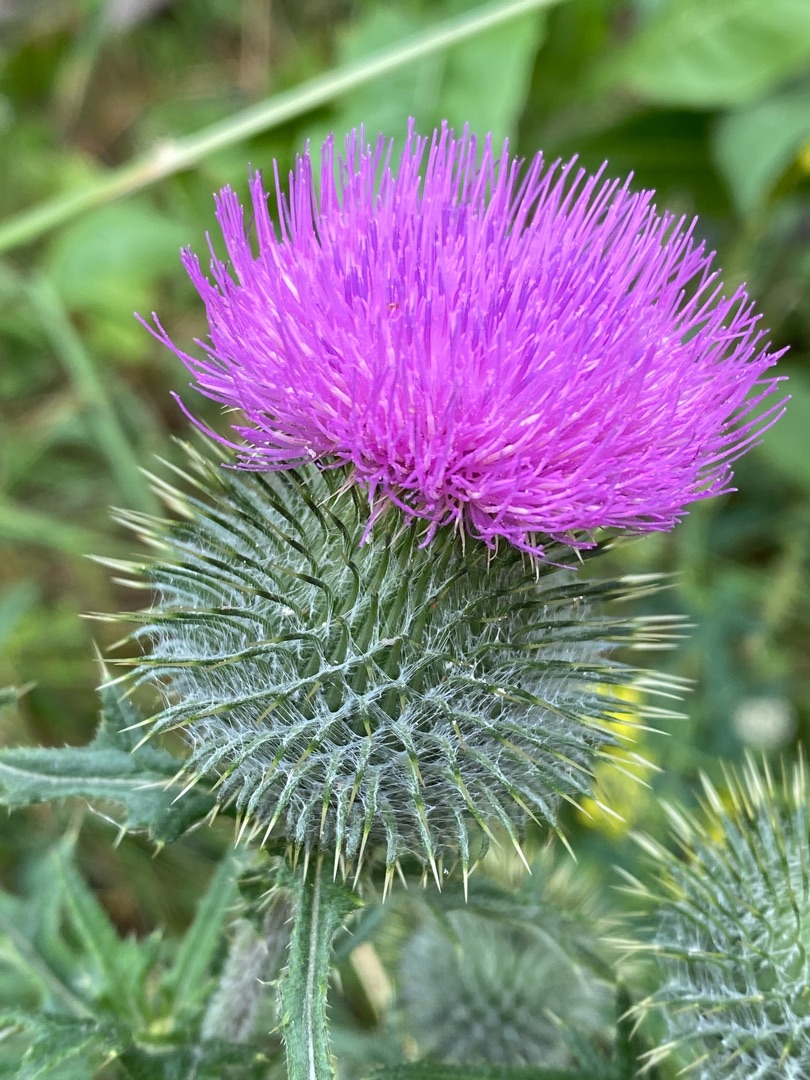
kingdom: Plantae
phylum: Tracheophyta
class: Magnoliopsida
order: Asterales
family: Asteraceae
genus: Cirsium
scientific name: Cirsium vulgare
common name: Horse-tidsel
